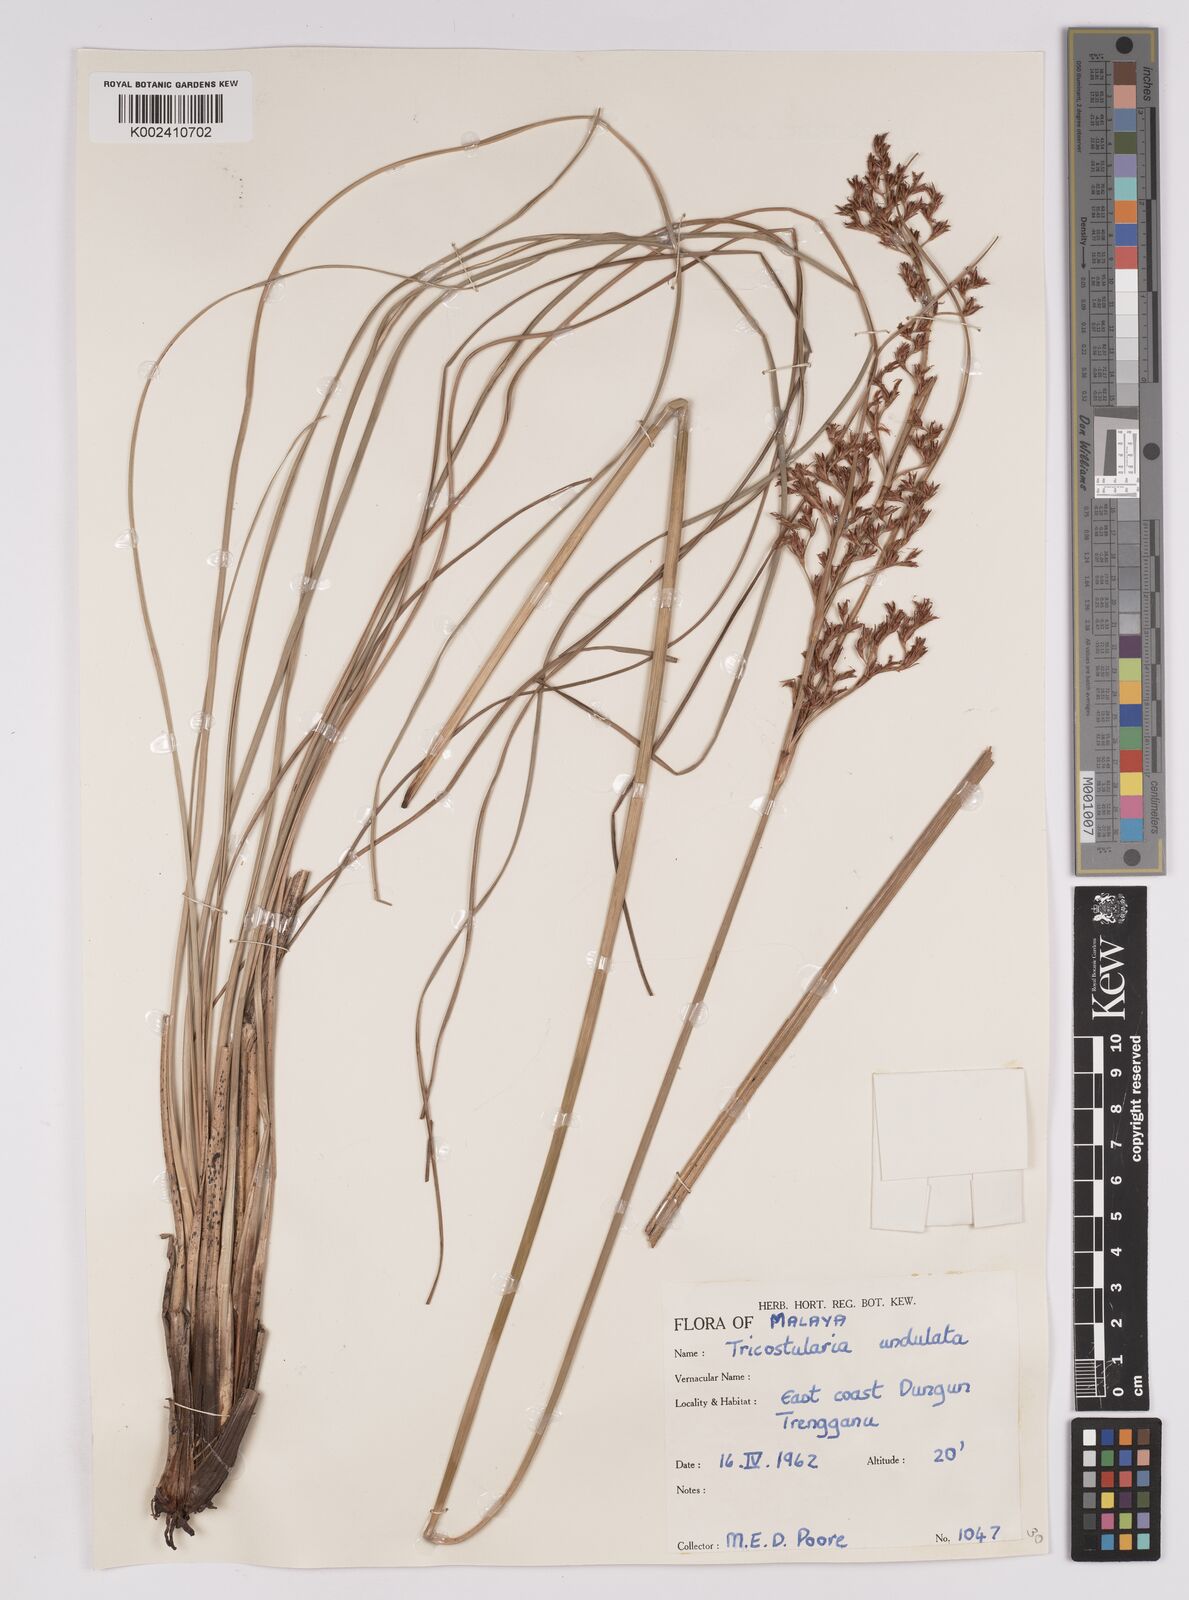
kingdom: Plantae
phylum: Tracheophyta
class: Liliopsida
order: Poales
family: Cyperaceae
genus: Anthelepis
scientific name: Anthelepis undulata
